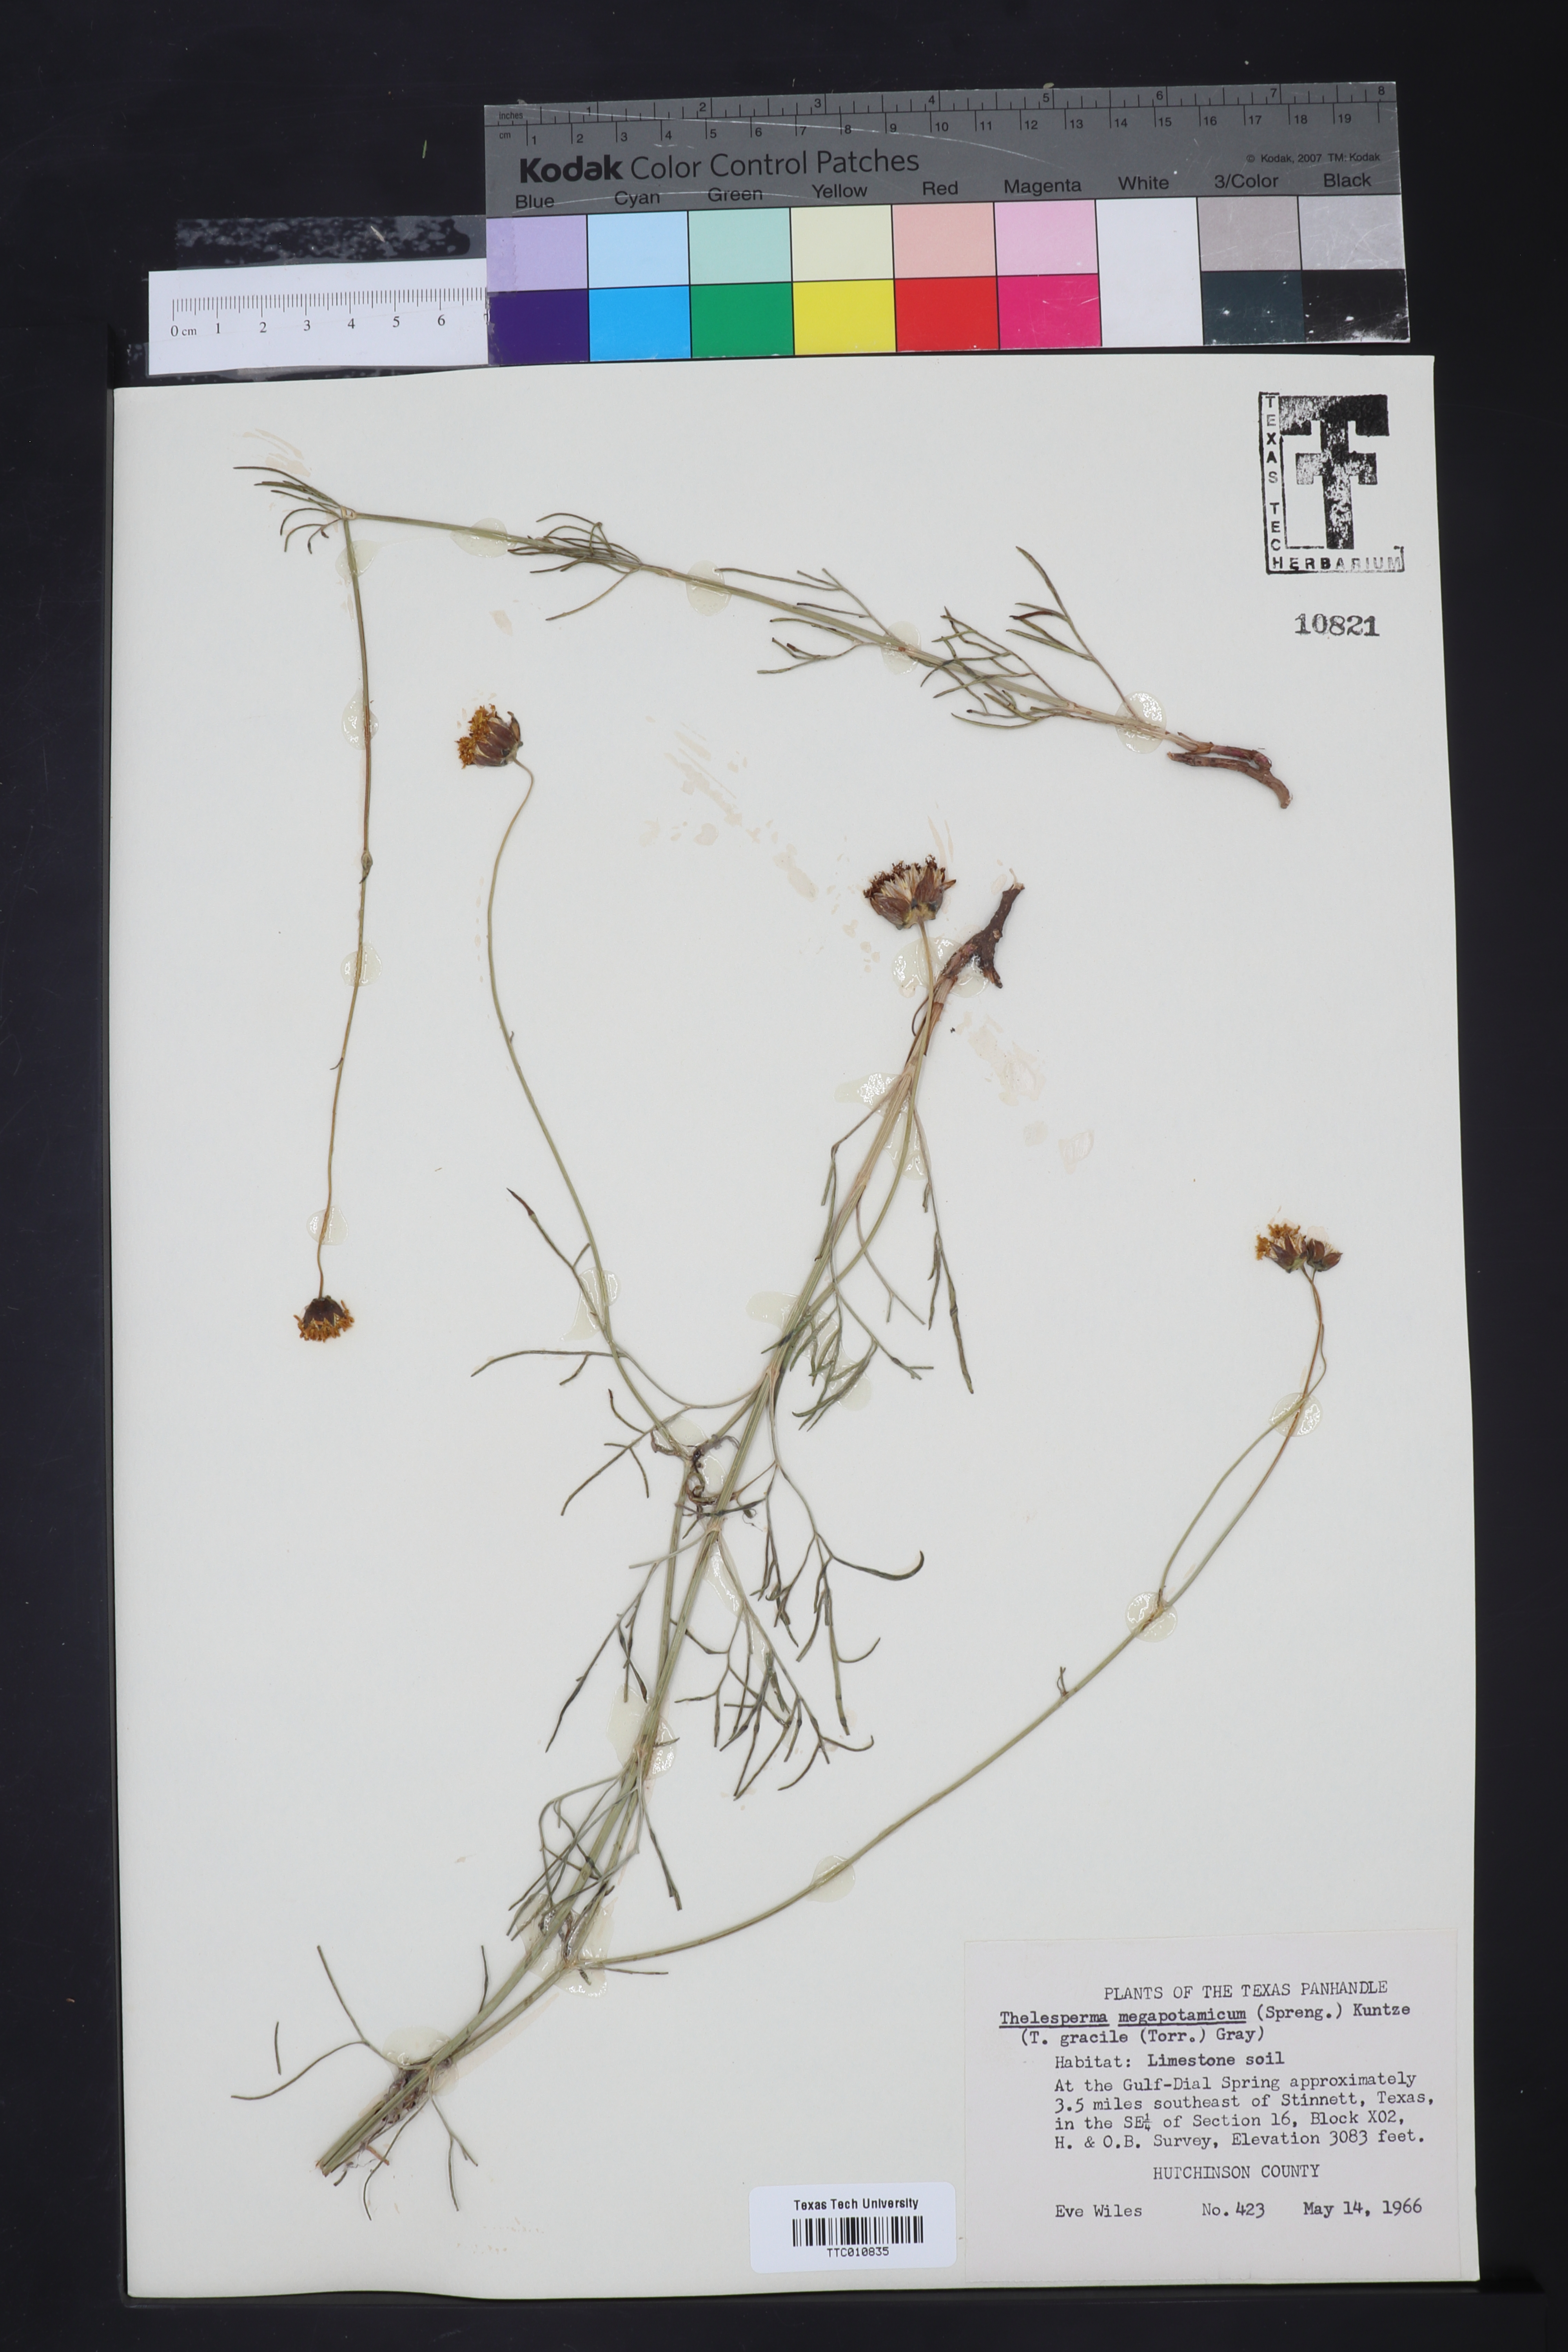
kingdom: Plantae
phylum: Tracheophyta
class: Magnoliopsida
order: Asterales
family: Asteraceae
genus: Thelesperma
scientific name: Thelesperma megapotamicum
